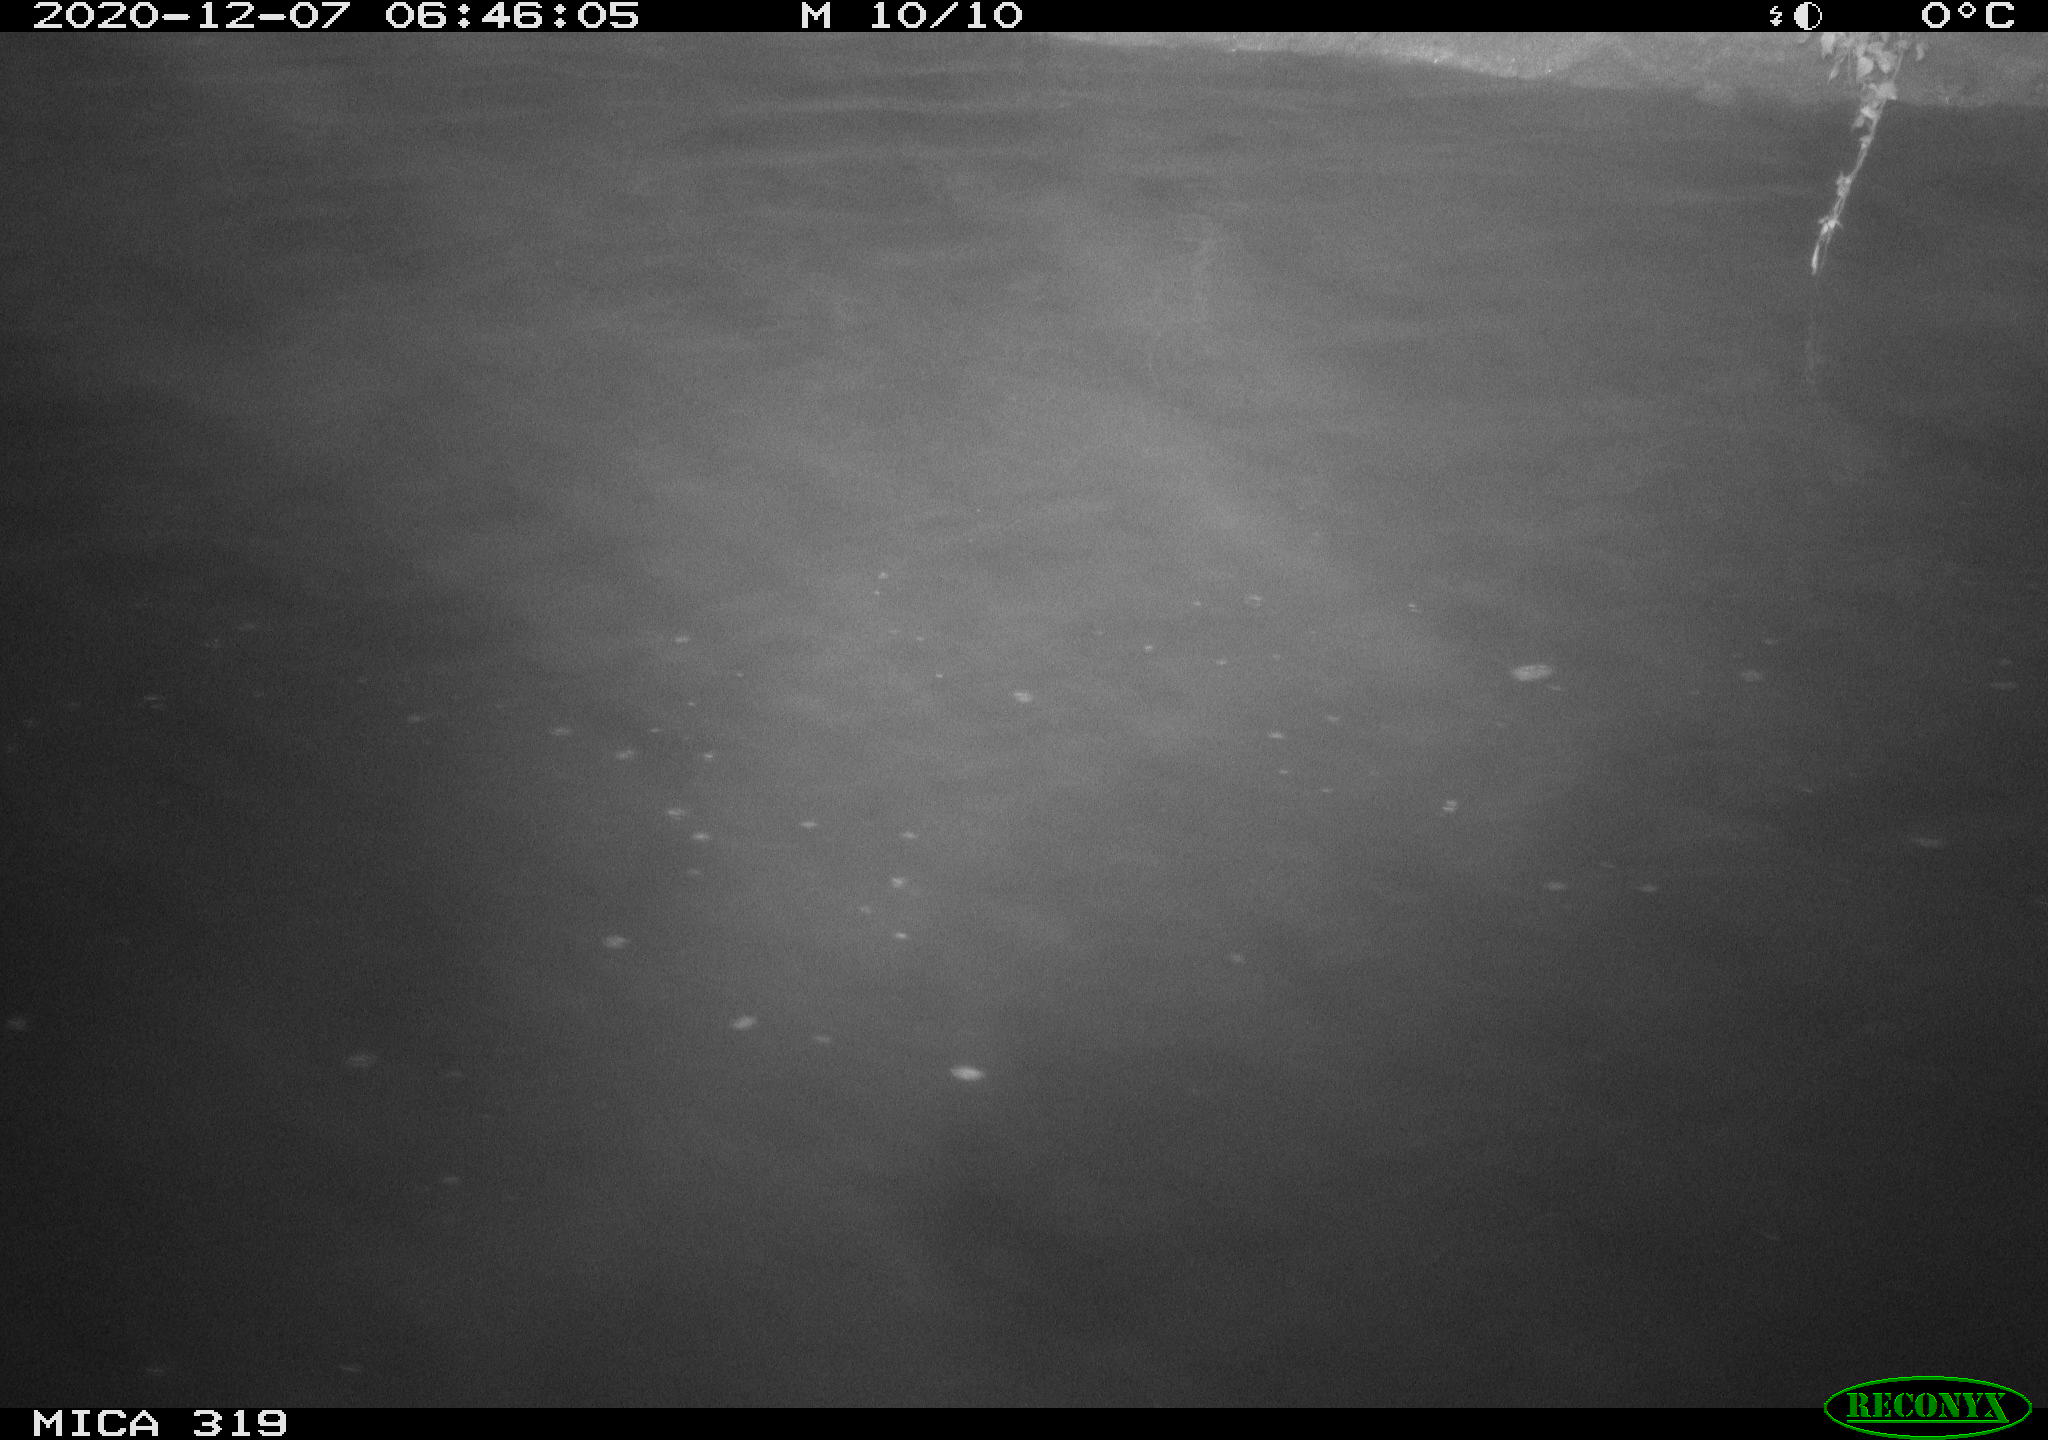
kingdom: Animalia
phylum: Chordata
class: Aves
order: Anseriformes
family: Anatidae
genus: Anas
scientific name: Anas platyrhynchos
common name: Mallard
